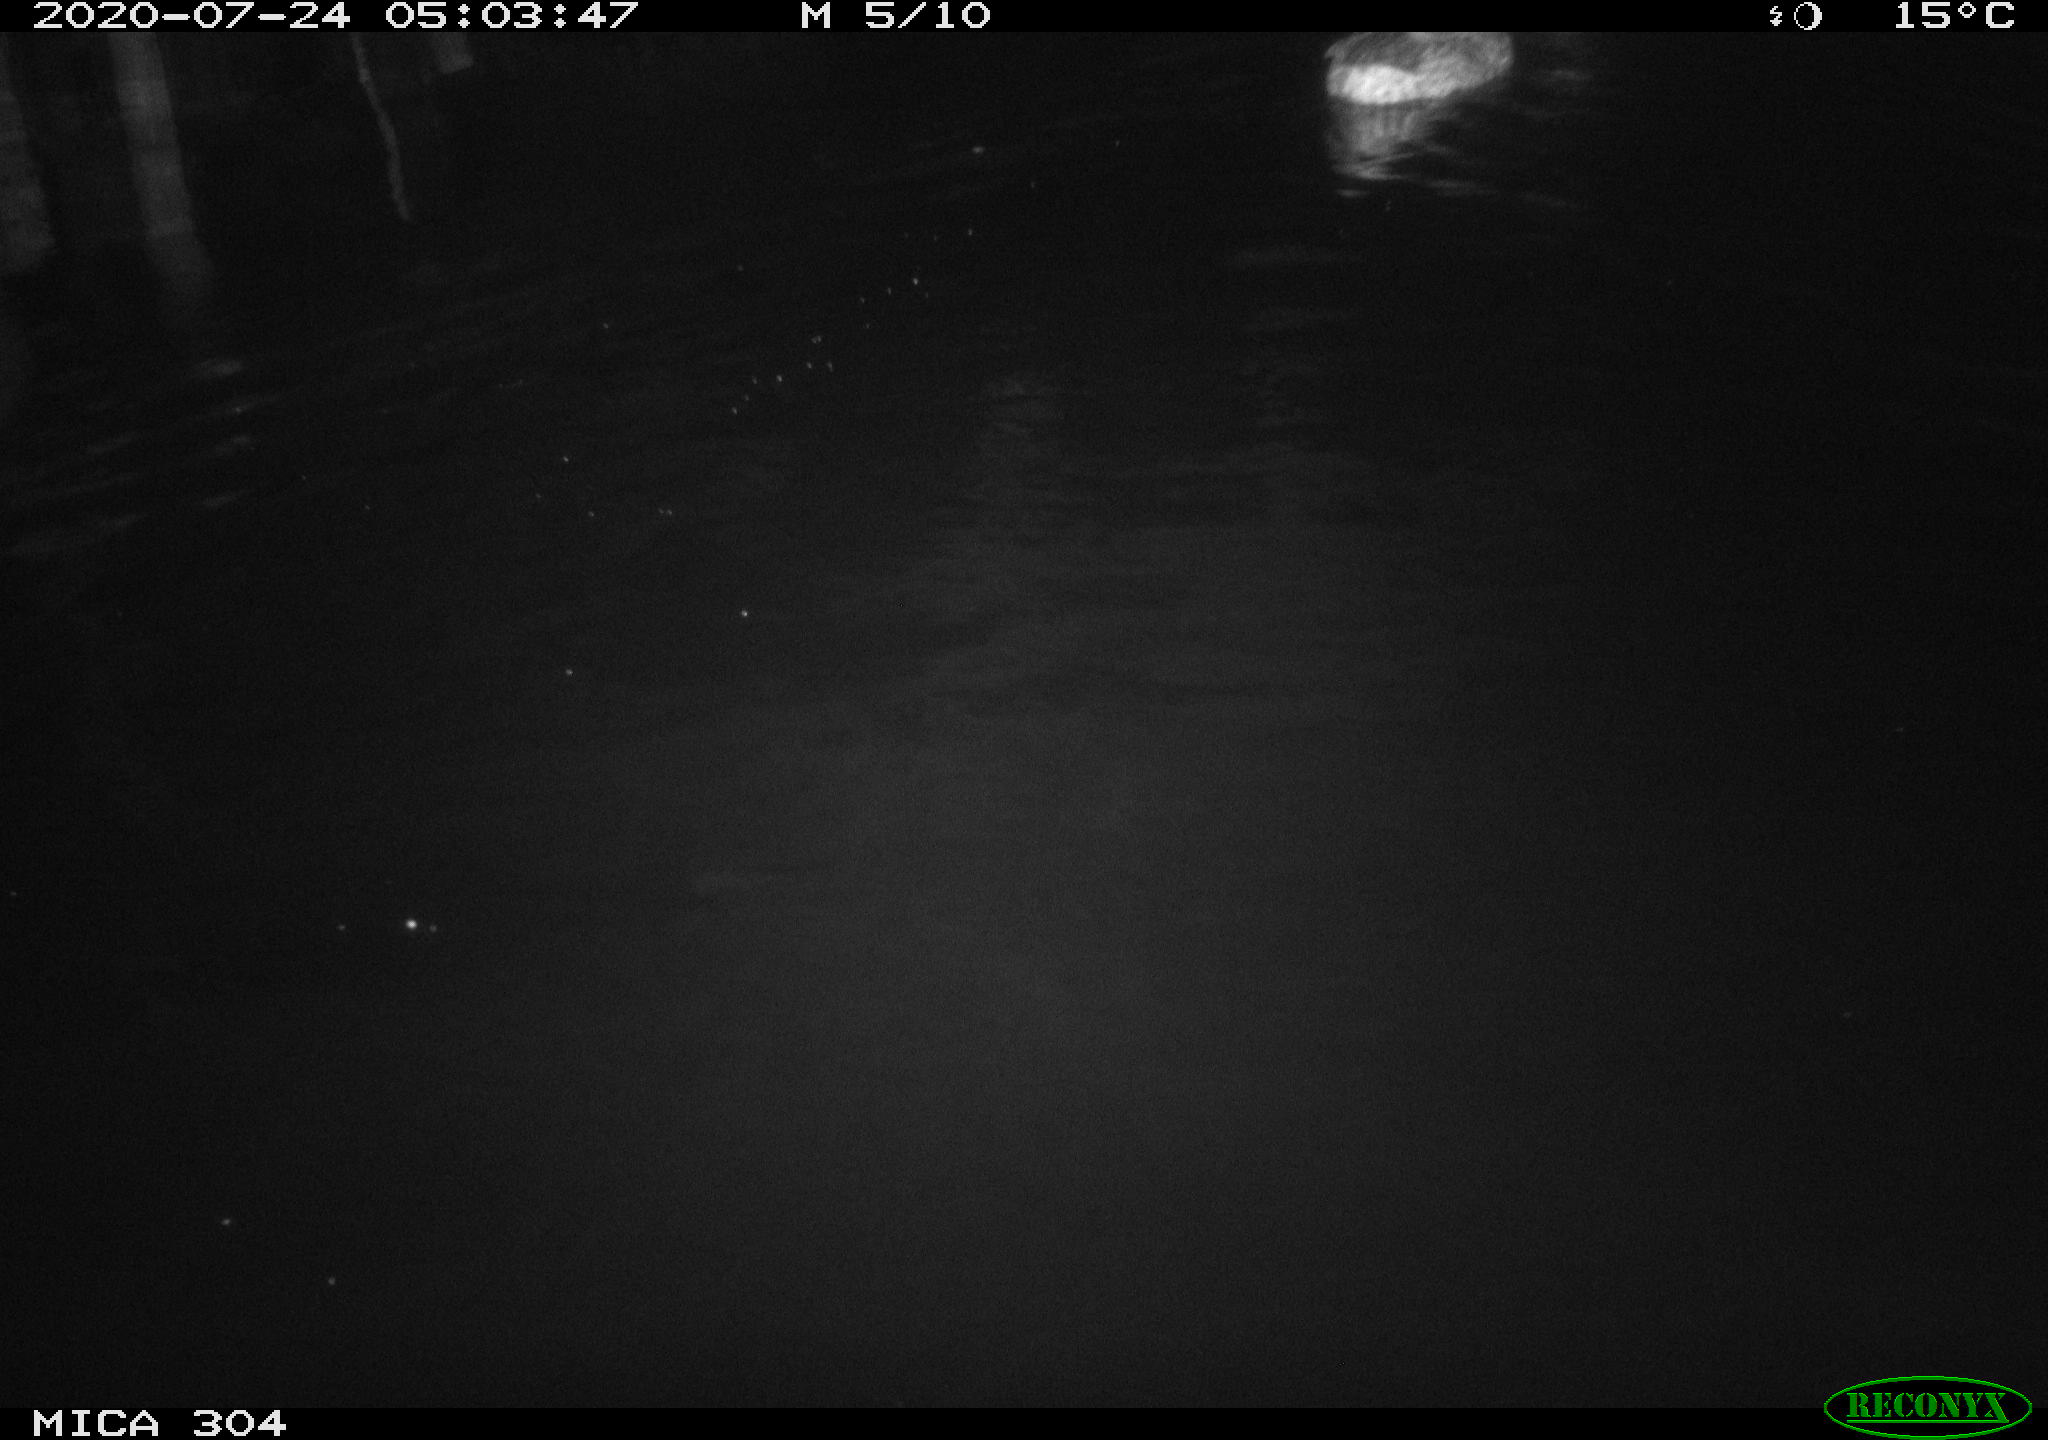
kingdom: Animalia
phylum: Chordata
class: Aves
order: Anseriformes
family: Anatidae
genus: Anas
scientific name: Anas platyrhynchos
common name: Mallard
